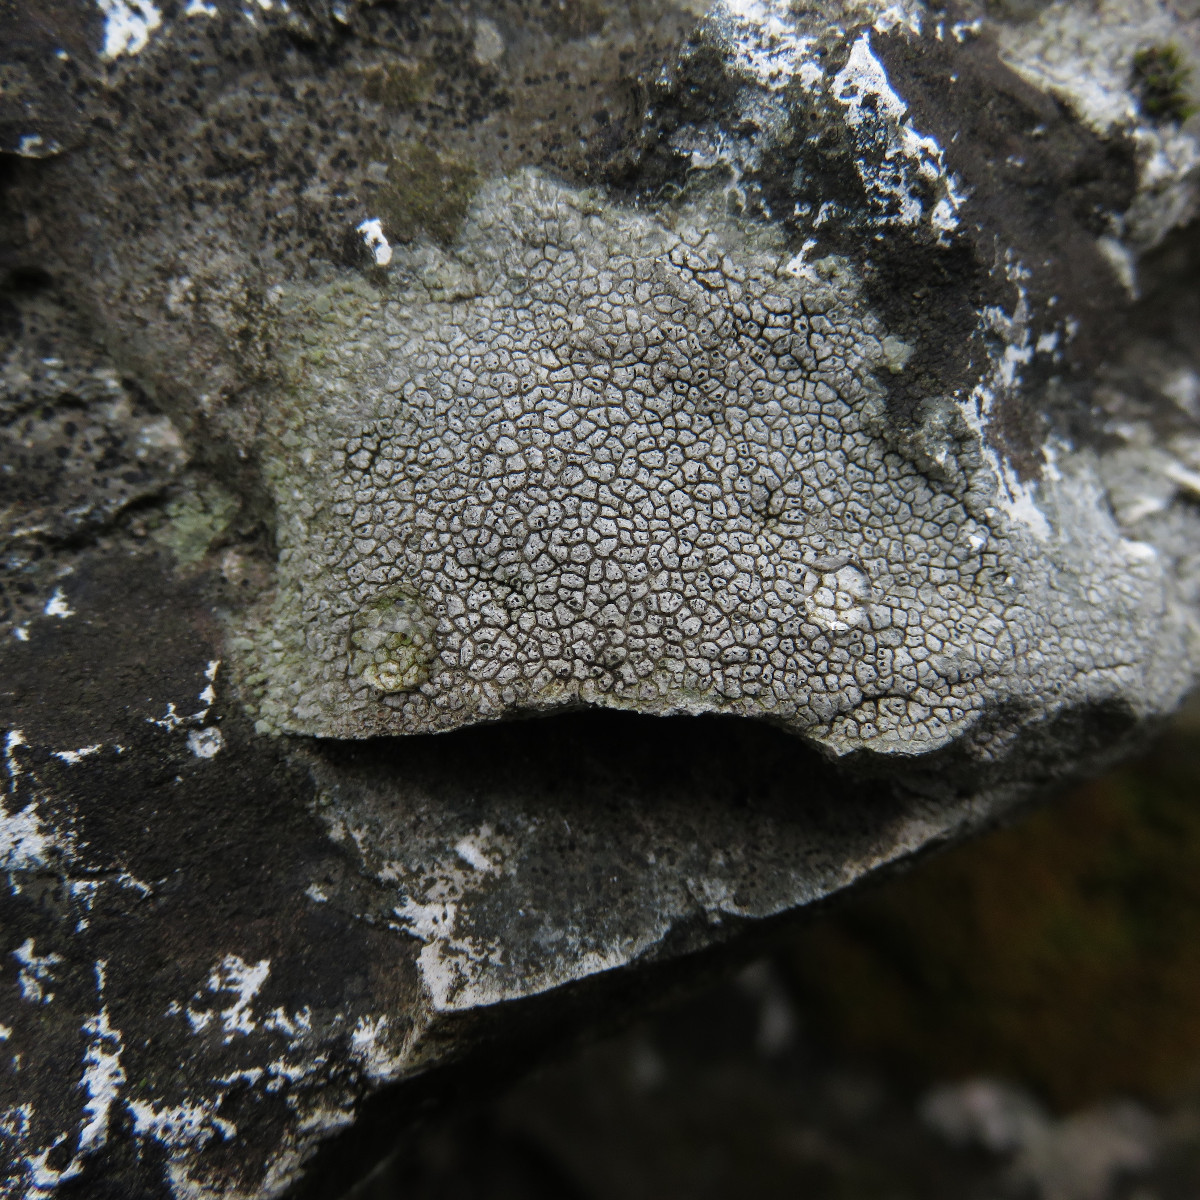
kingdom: Fungi
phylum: Ascomycota
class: Lecanoromycetes
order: Pertusariales
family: Megasporaceae
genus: Circinaria
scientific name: Circinaria calcarea
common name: kalk-hulskivelav
